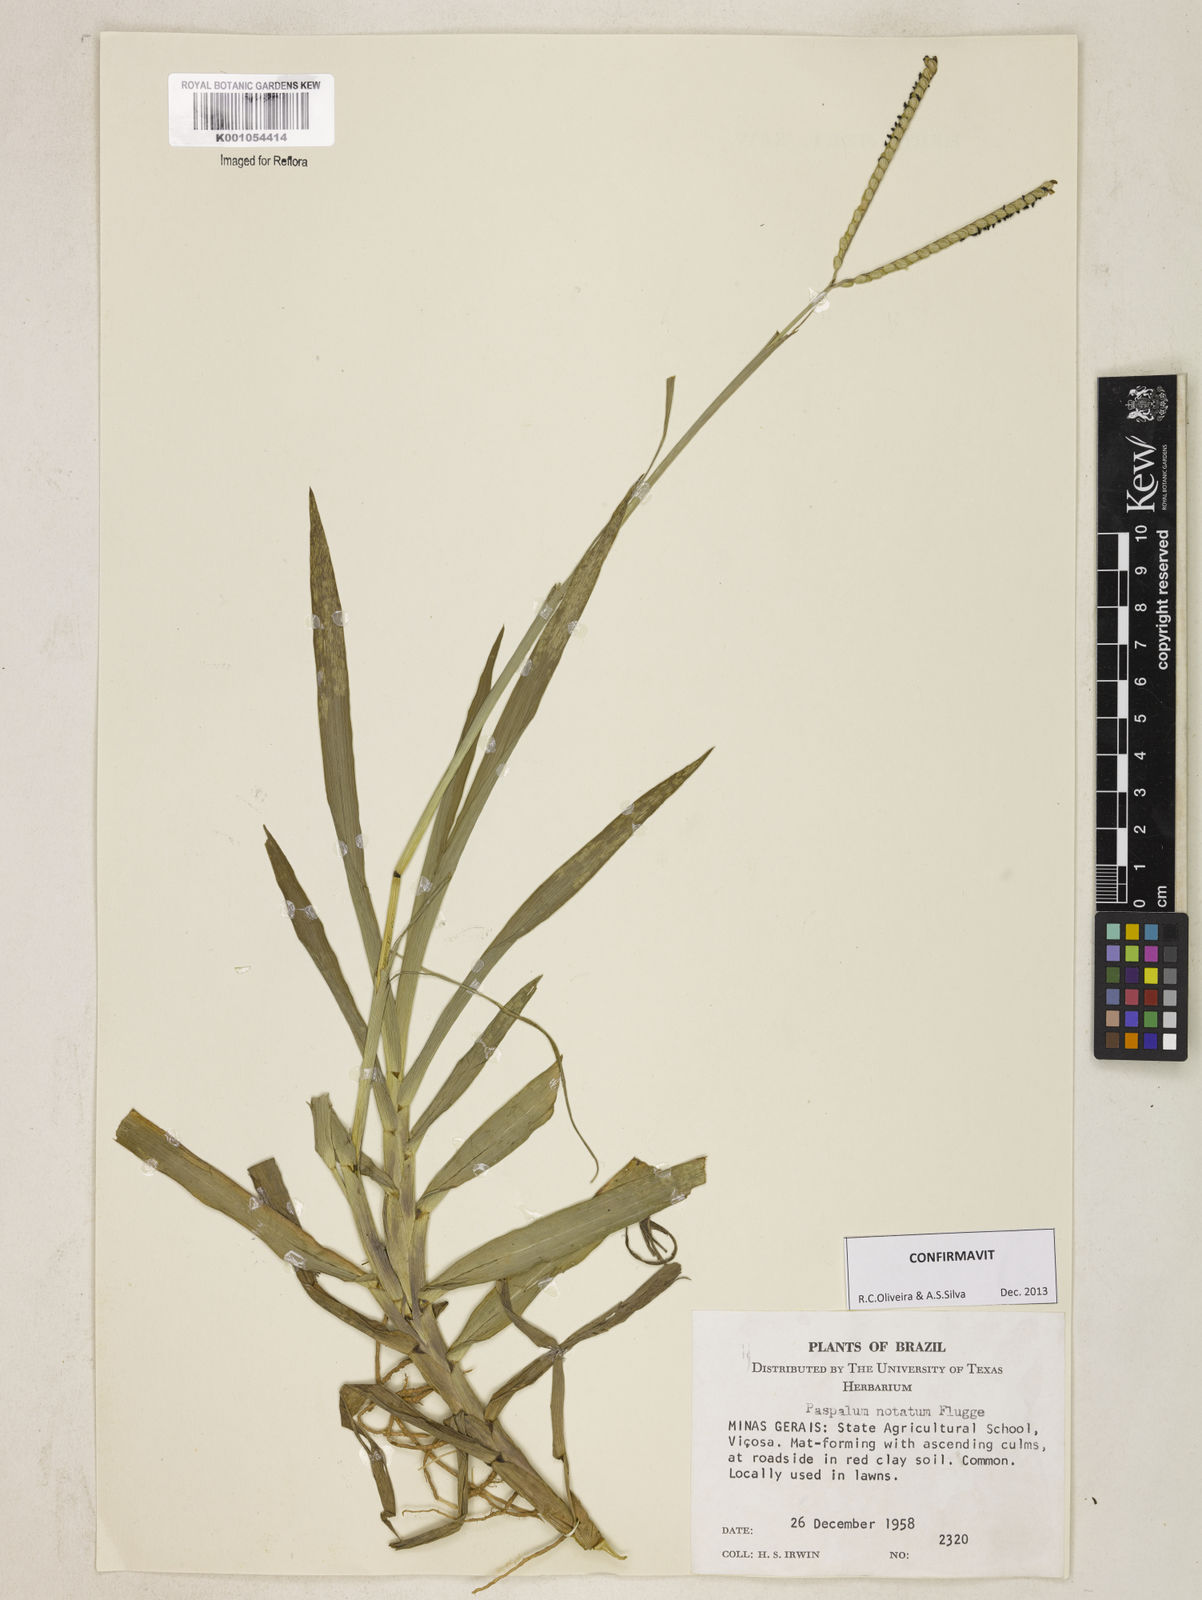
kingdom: Plantae
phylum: Tracheophyta
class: Liliopsida
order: Poales
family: Poaceae
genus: Paspalum
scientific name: Paspalum
